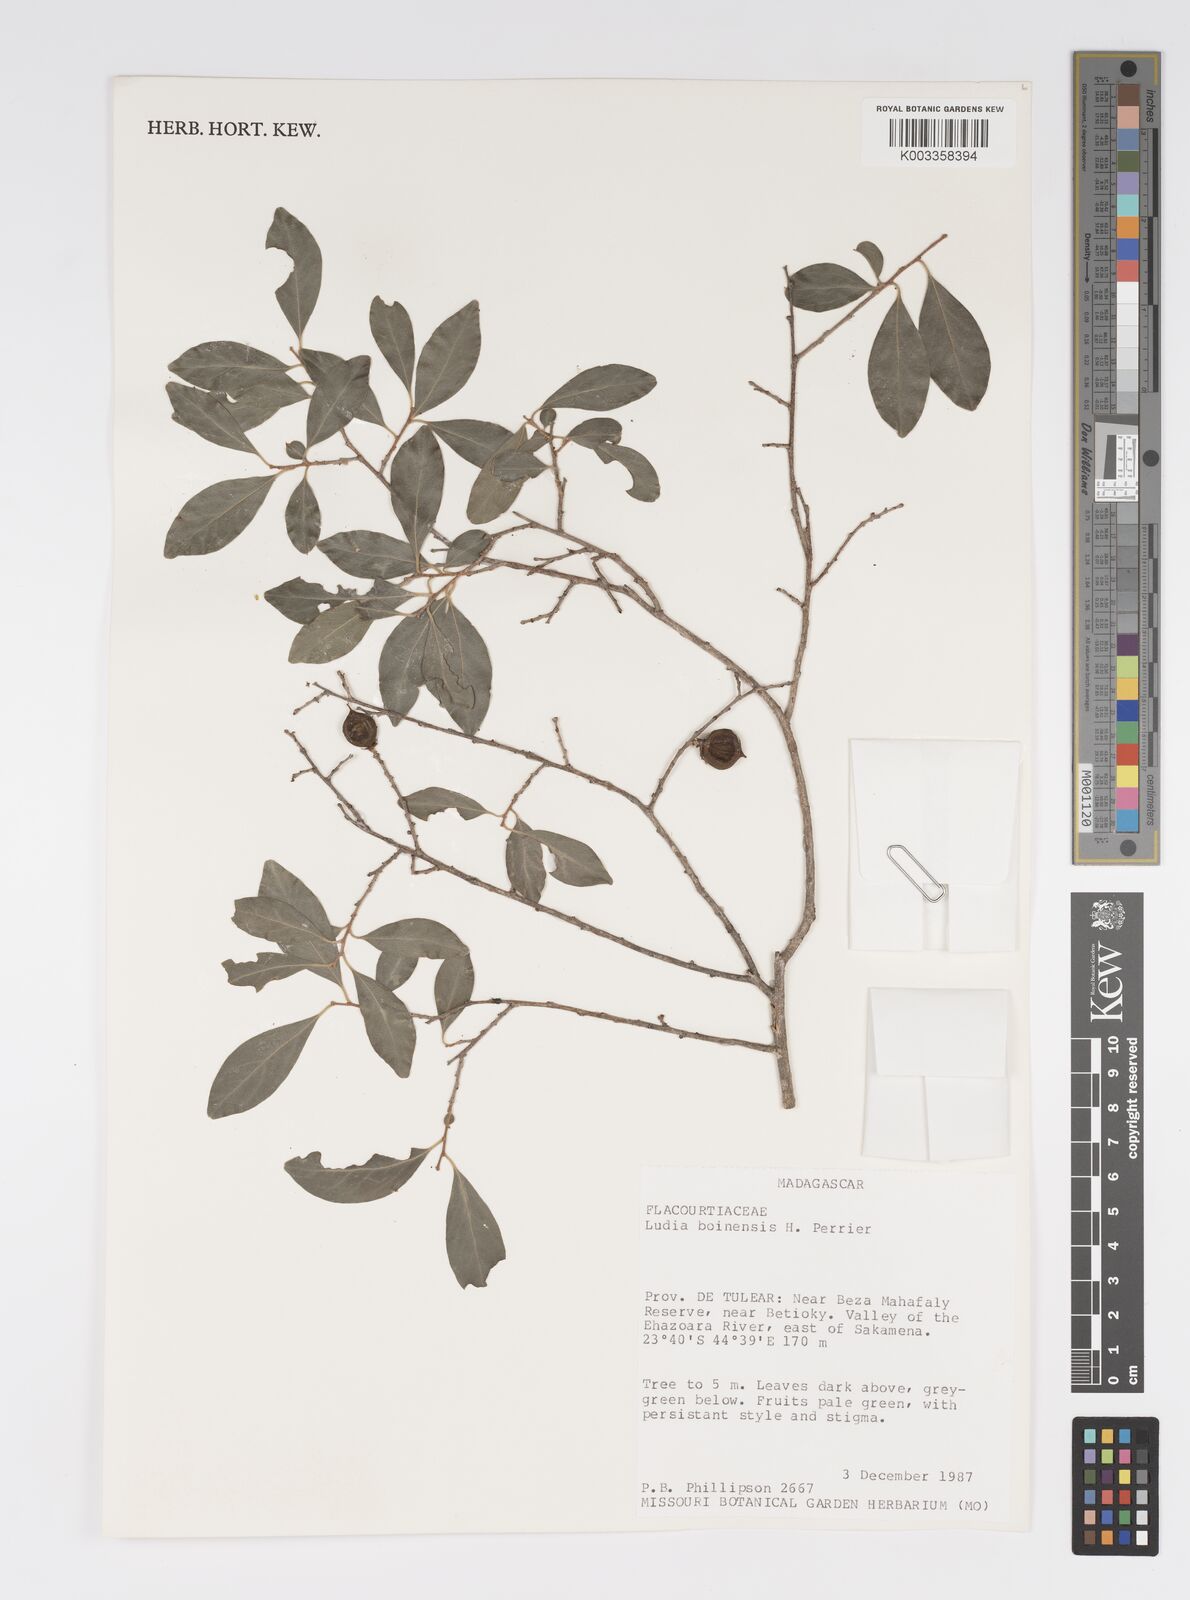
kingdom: Plantae
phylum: Tracheophyta
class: Magnoliopsida
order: Malpighiales
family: Salicaceae
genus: Ludia
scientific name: Ludia boinensis
